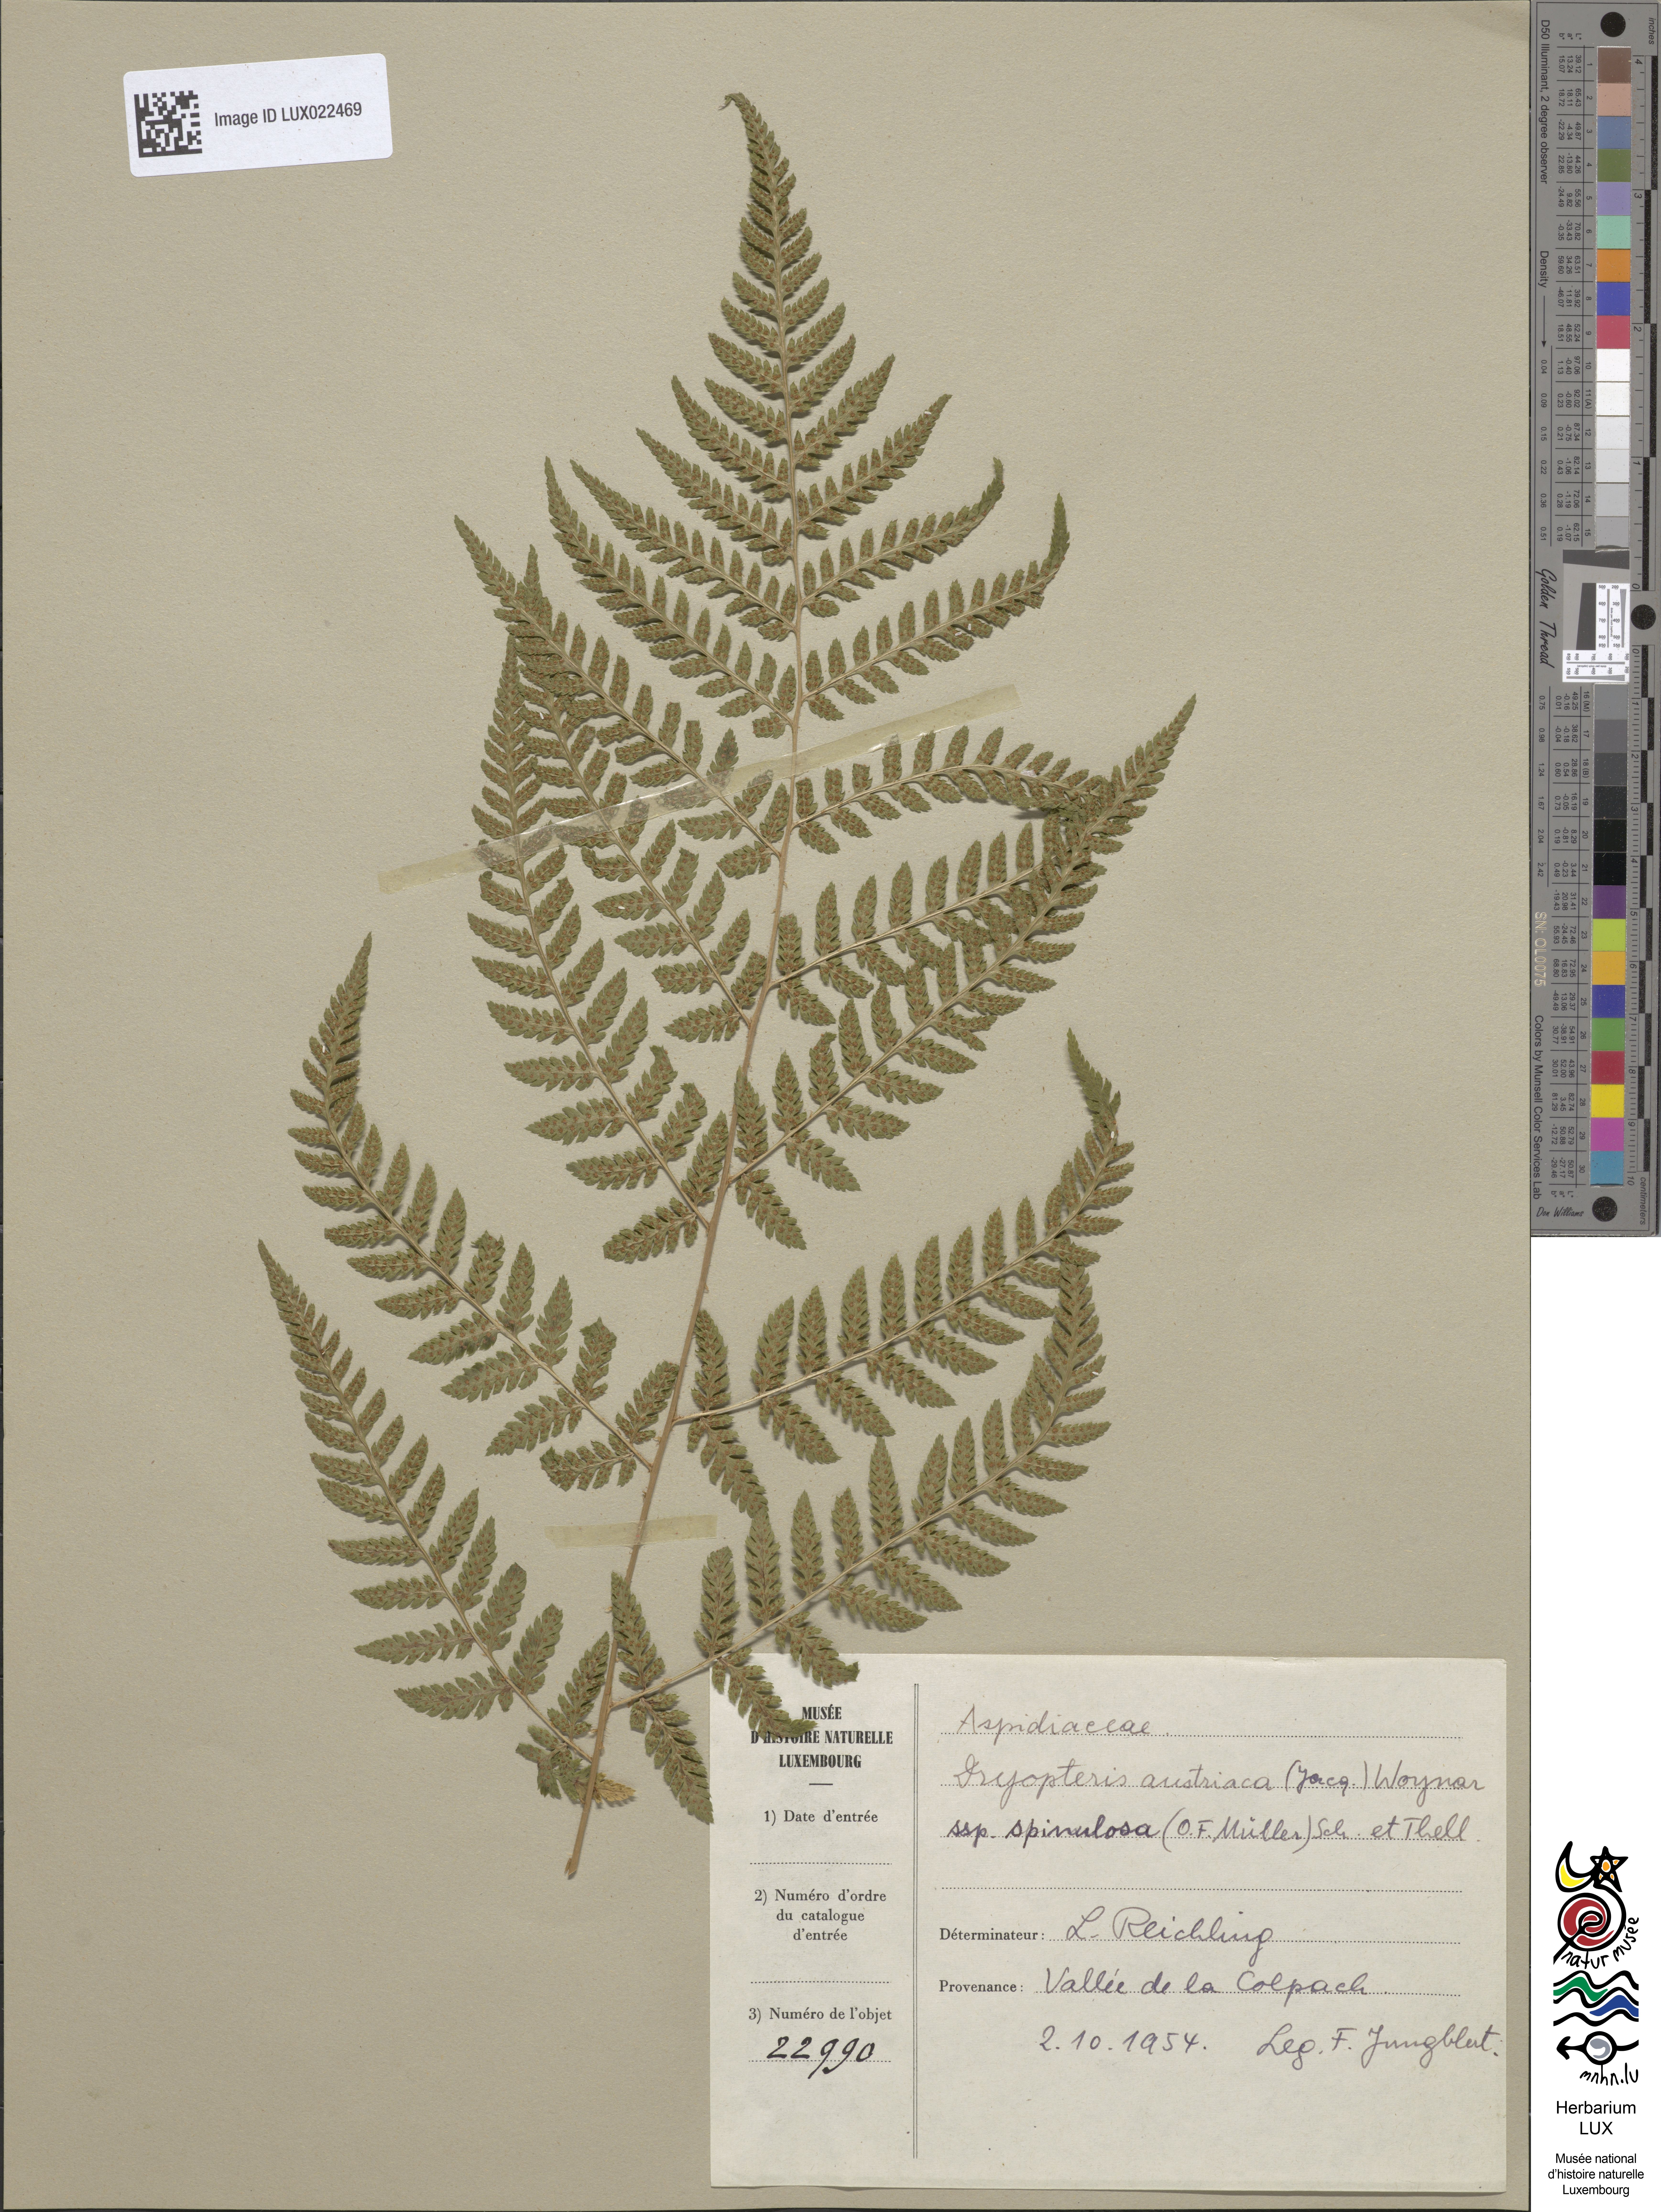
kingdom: Plantae
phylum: Tracheophyta
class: Polypodiopsida
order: Polypodiales
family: Dryopteridaceae
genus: Dryopteris
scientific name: Dryopteris dilatata
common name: Broad buckler-fern
